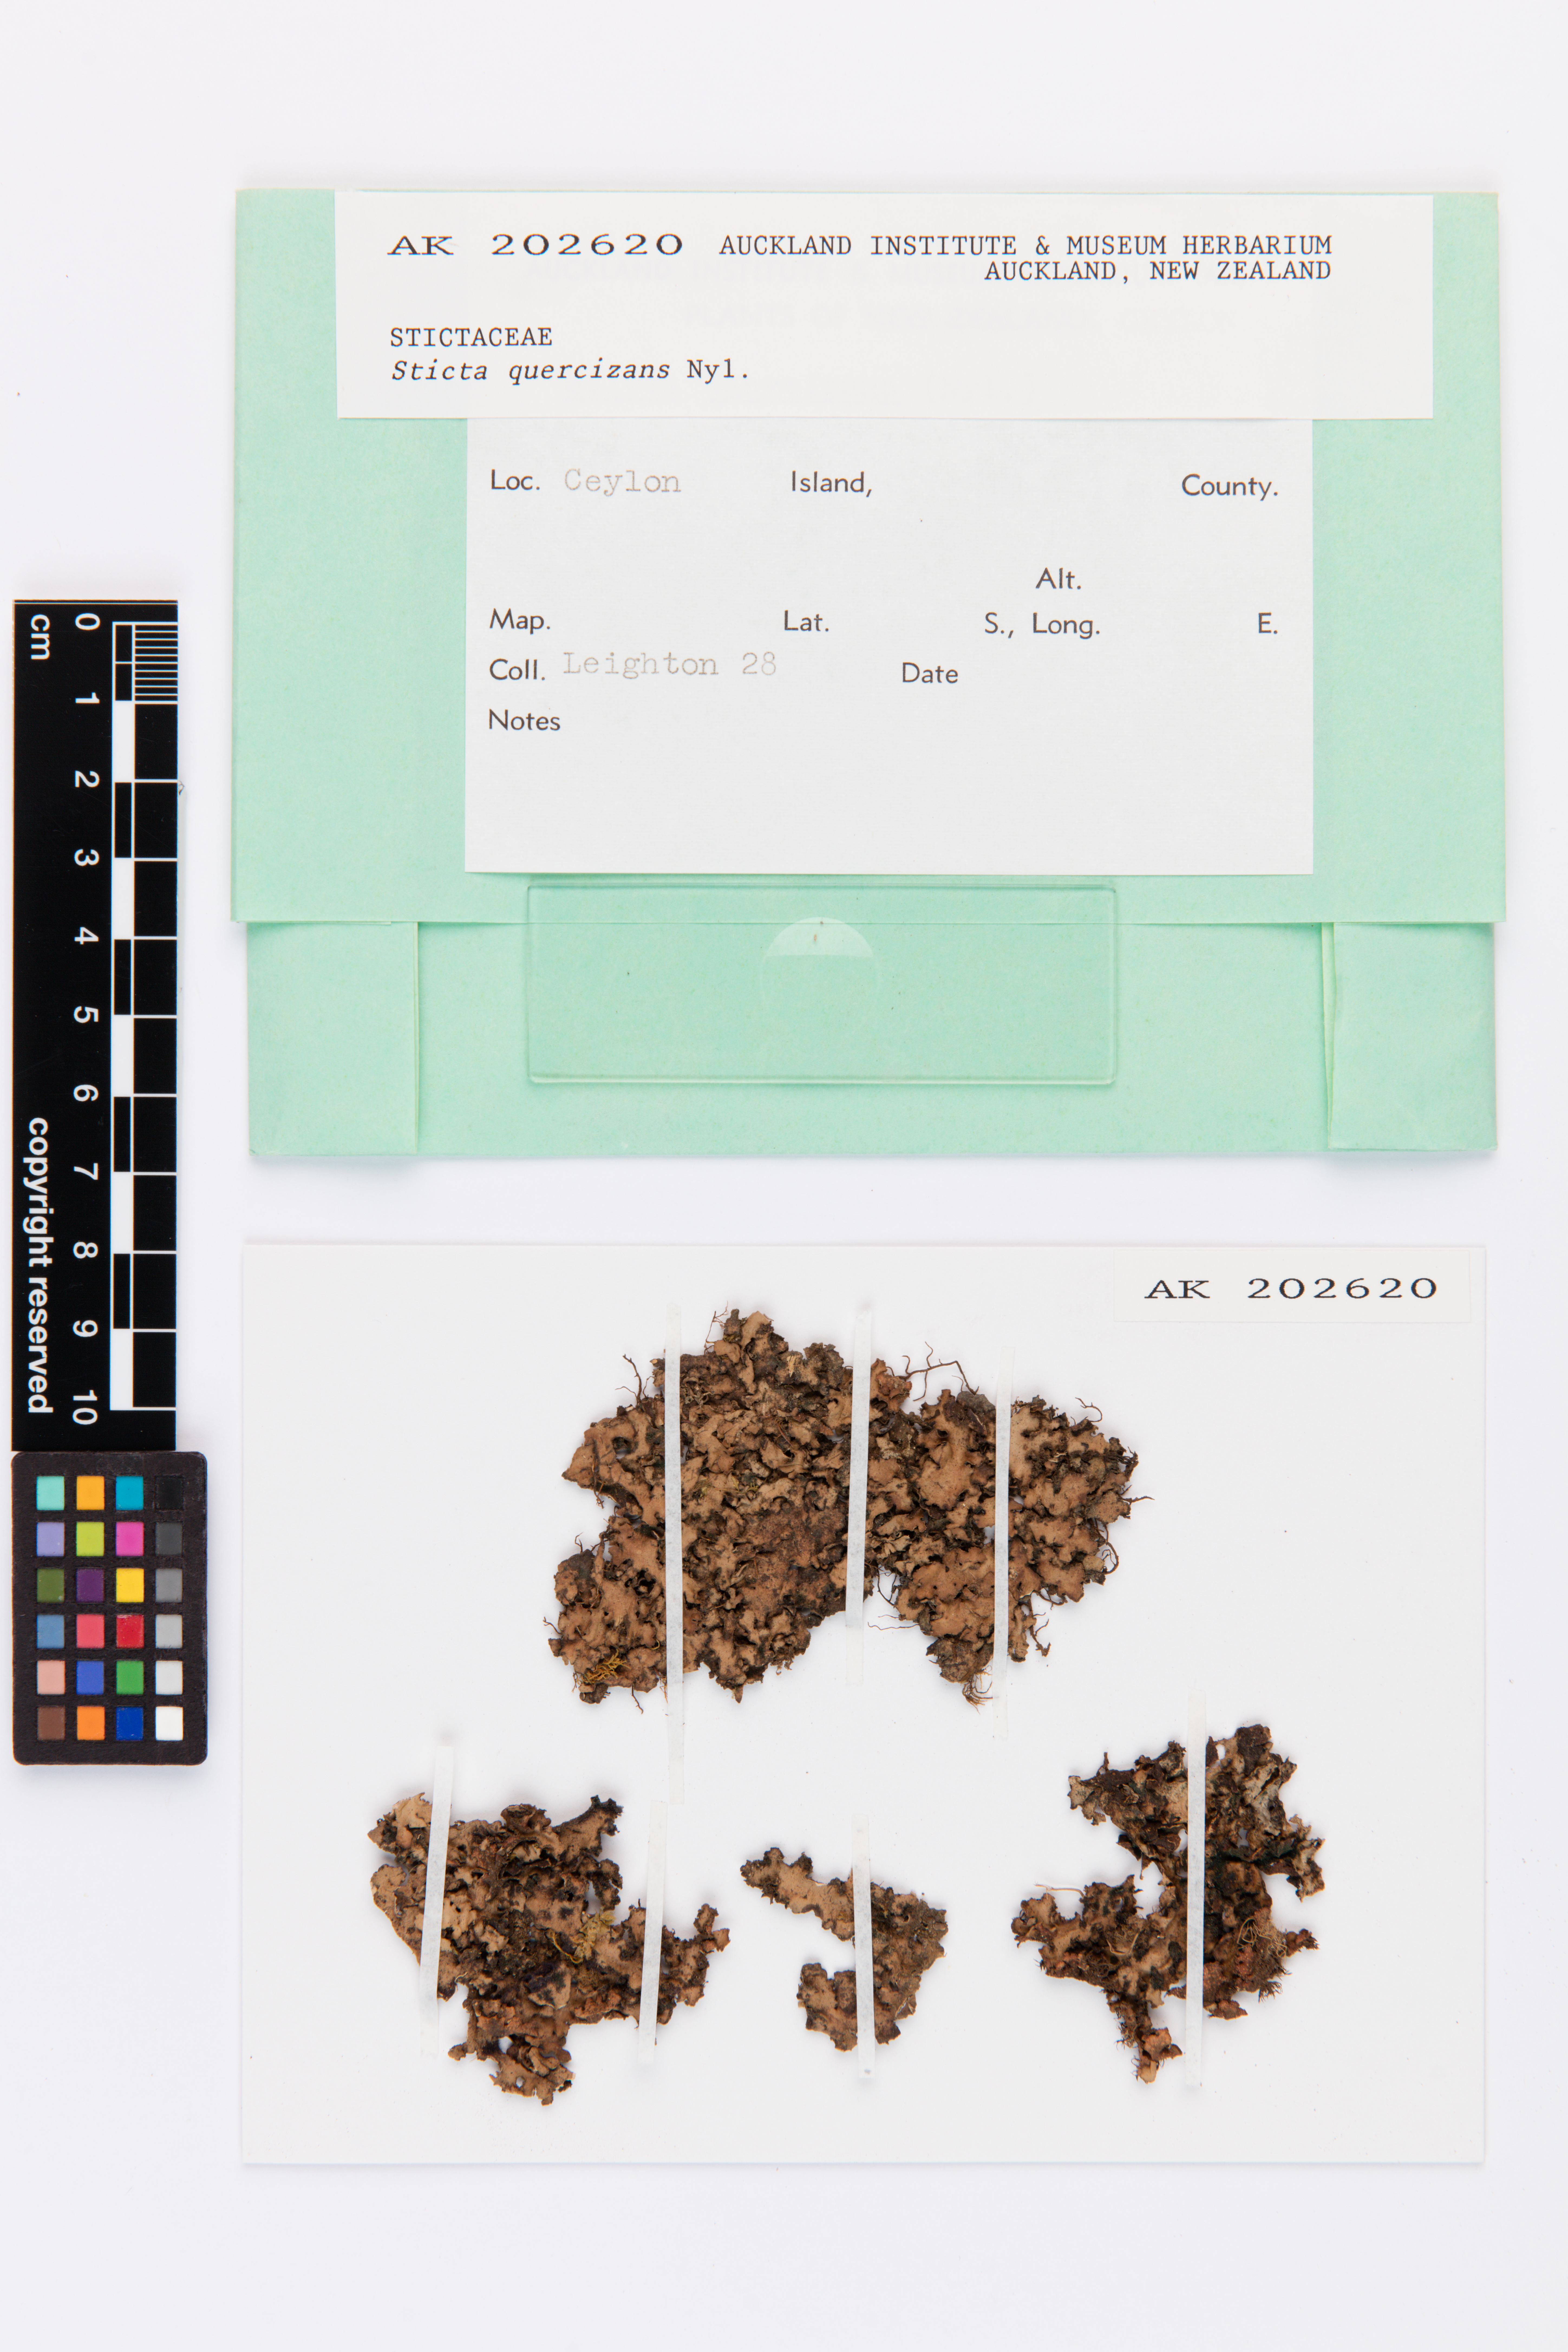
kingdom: Fungi
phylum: Ascomycota
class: Lecanoromycetes
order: Peltigerales
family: Lobariaceae
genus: Sticta
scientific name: Sticta weigelii
